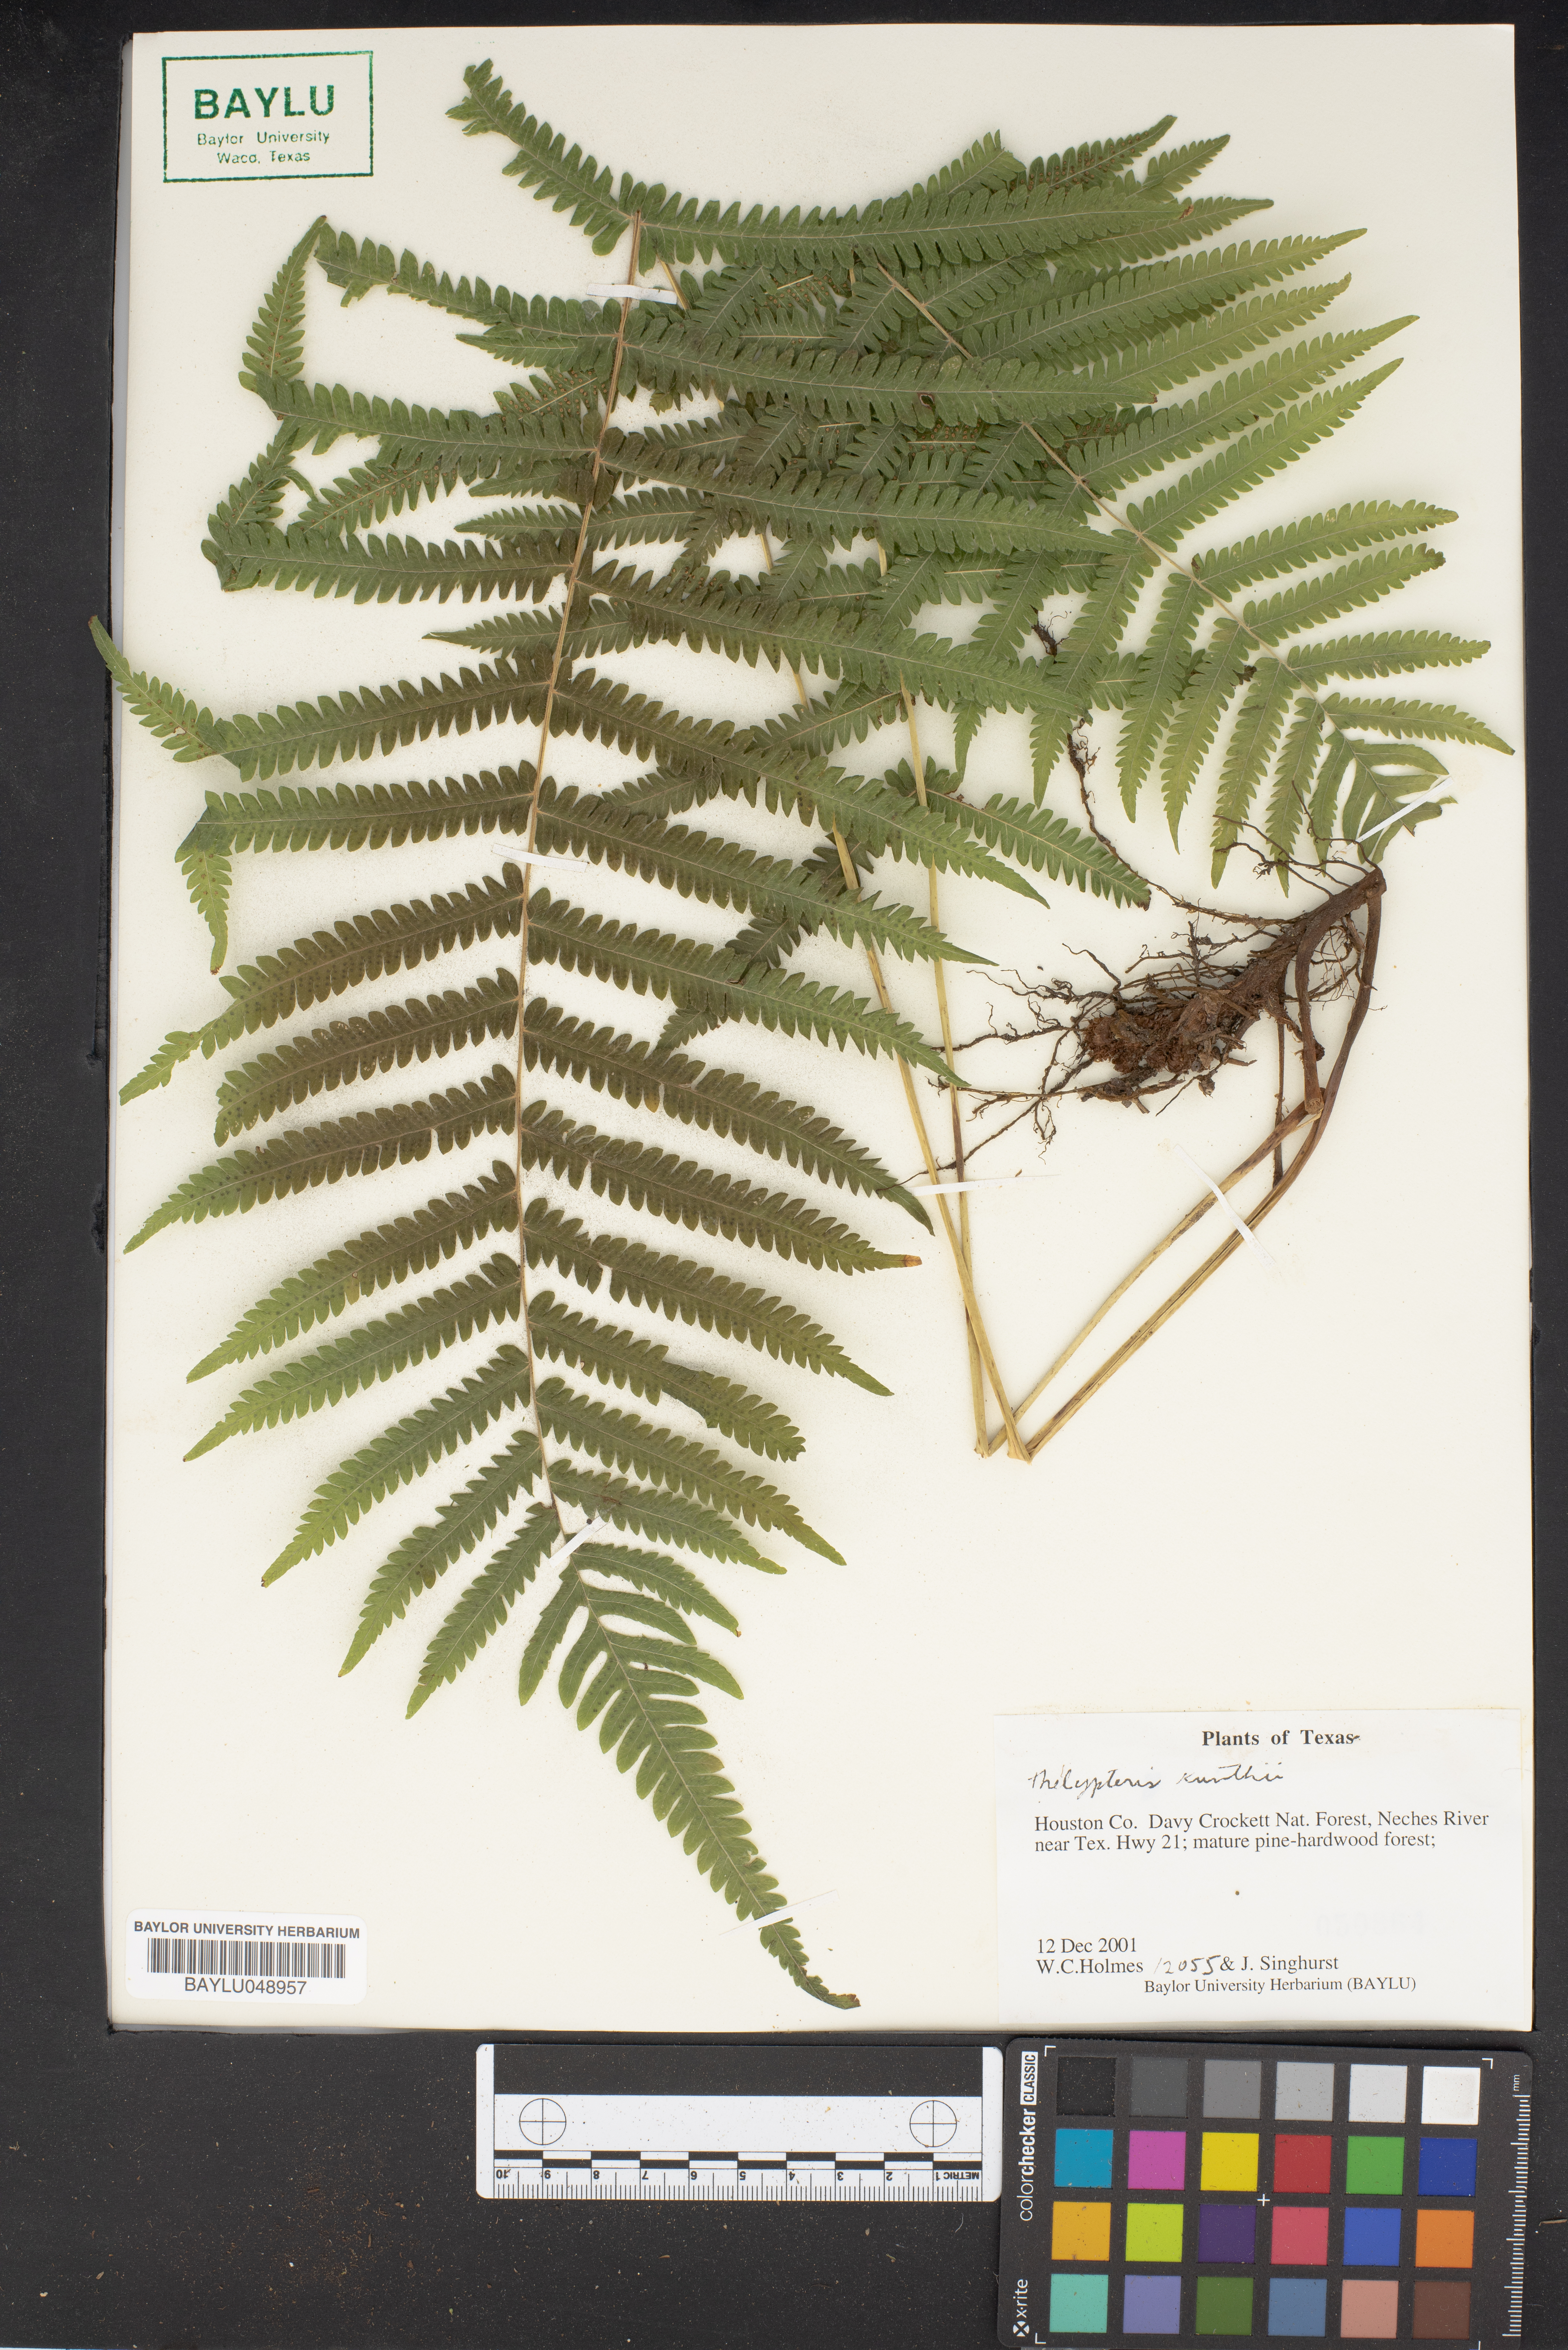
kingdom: Plantae
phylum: Tracheophyta
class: Polypodiopsida
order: Polypodiales
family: Thelypteridaceae
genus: Pelazoneuron
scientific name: Pelazoneuron kunthii
